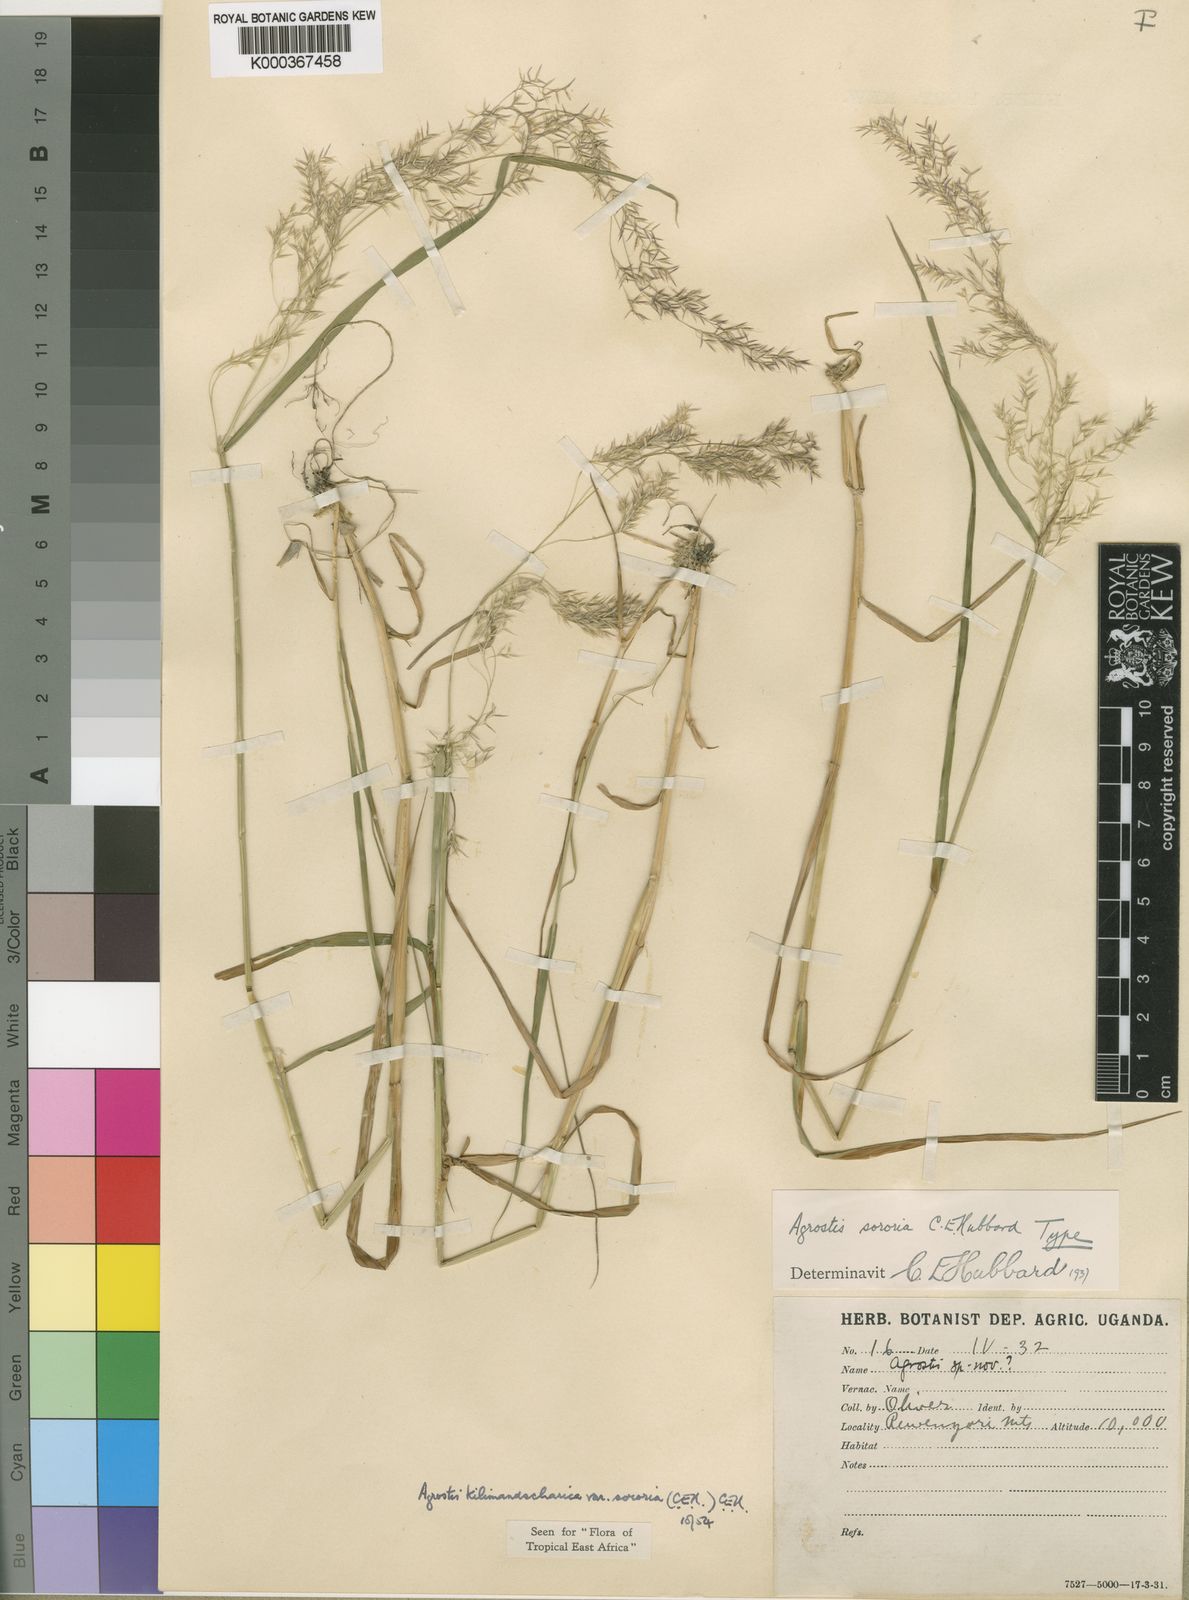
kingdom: Plantae
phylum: Tracheophyta
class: Liliopsida
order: Poales
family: Poaceae
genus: Agrostis
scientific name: Agrostis kilimandscharica
